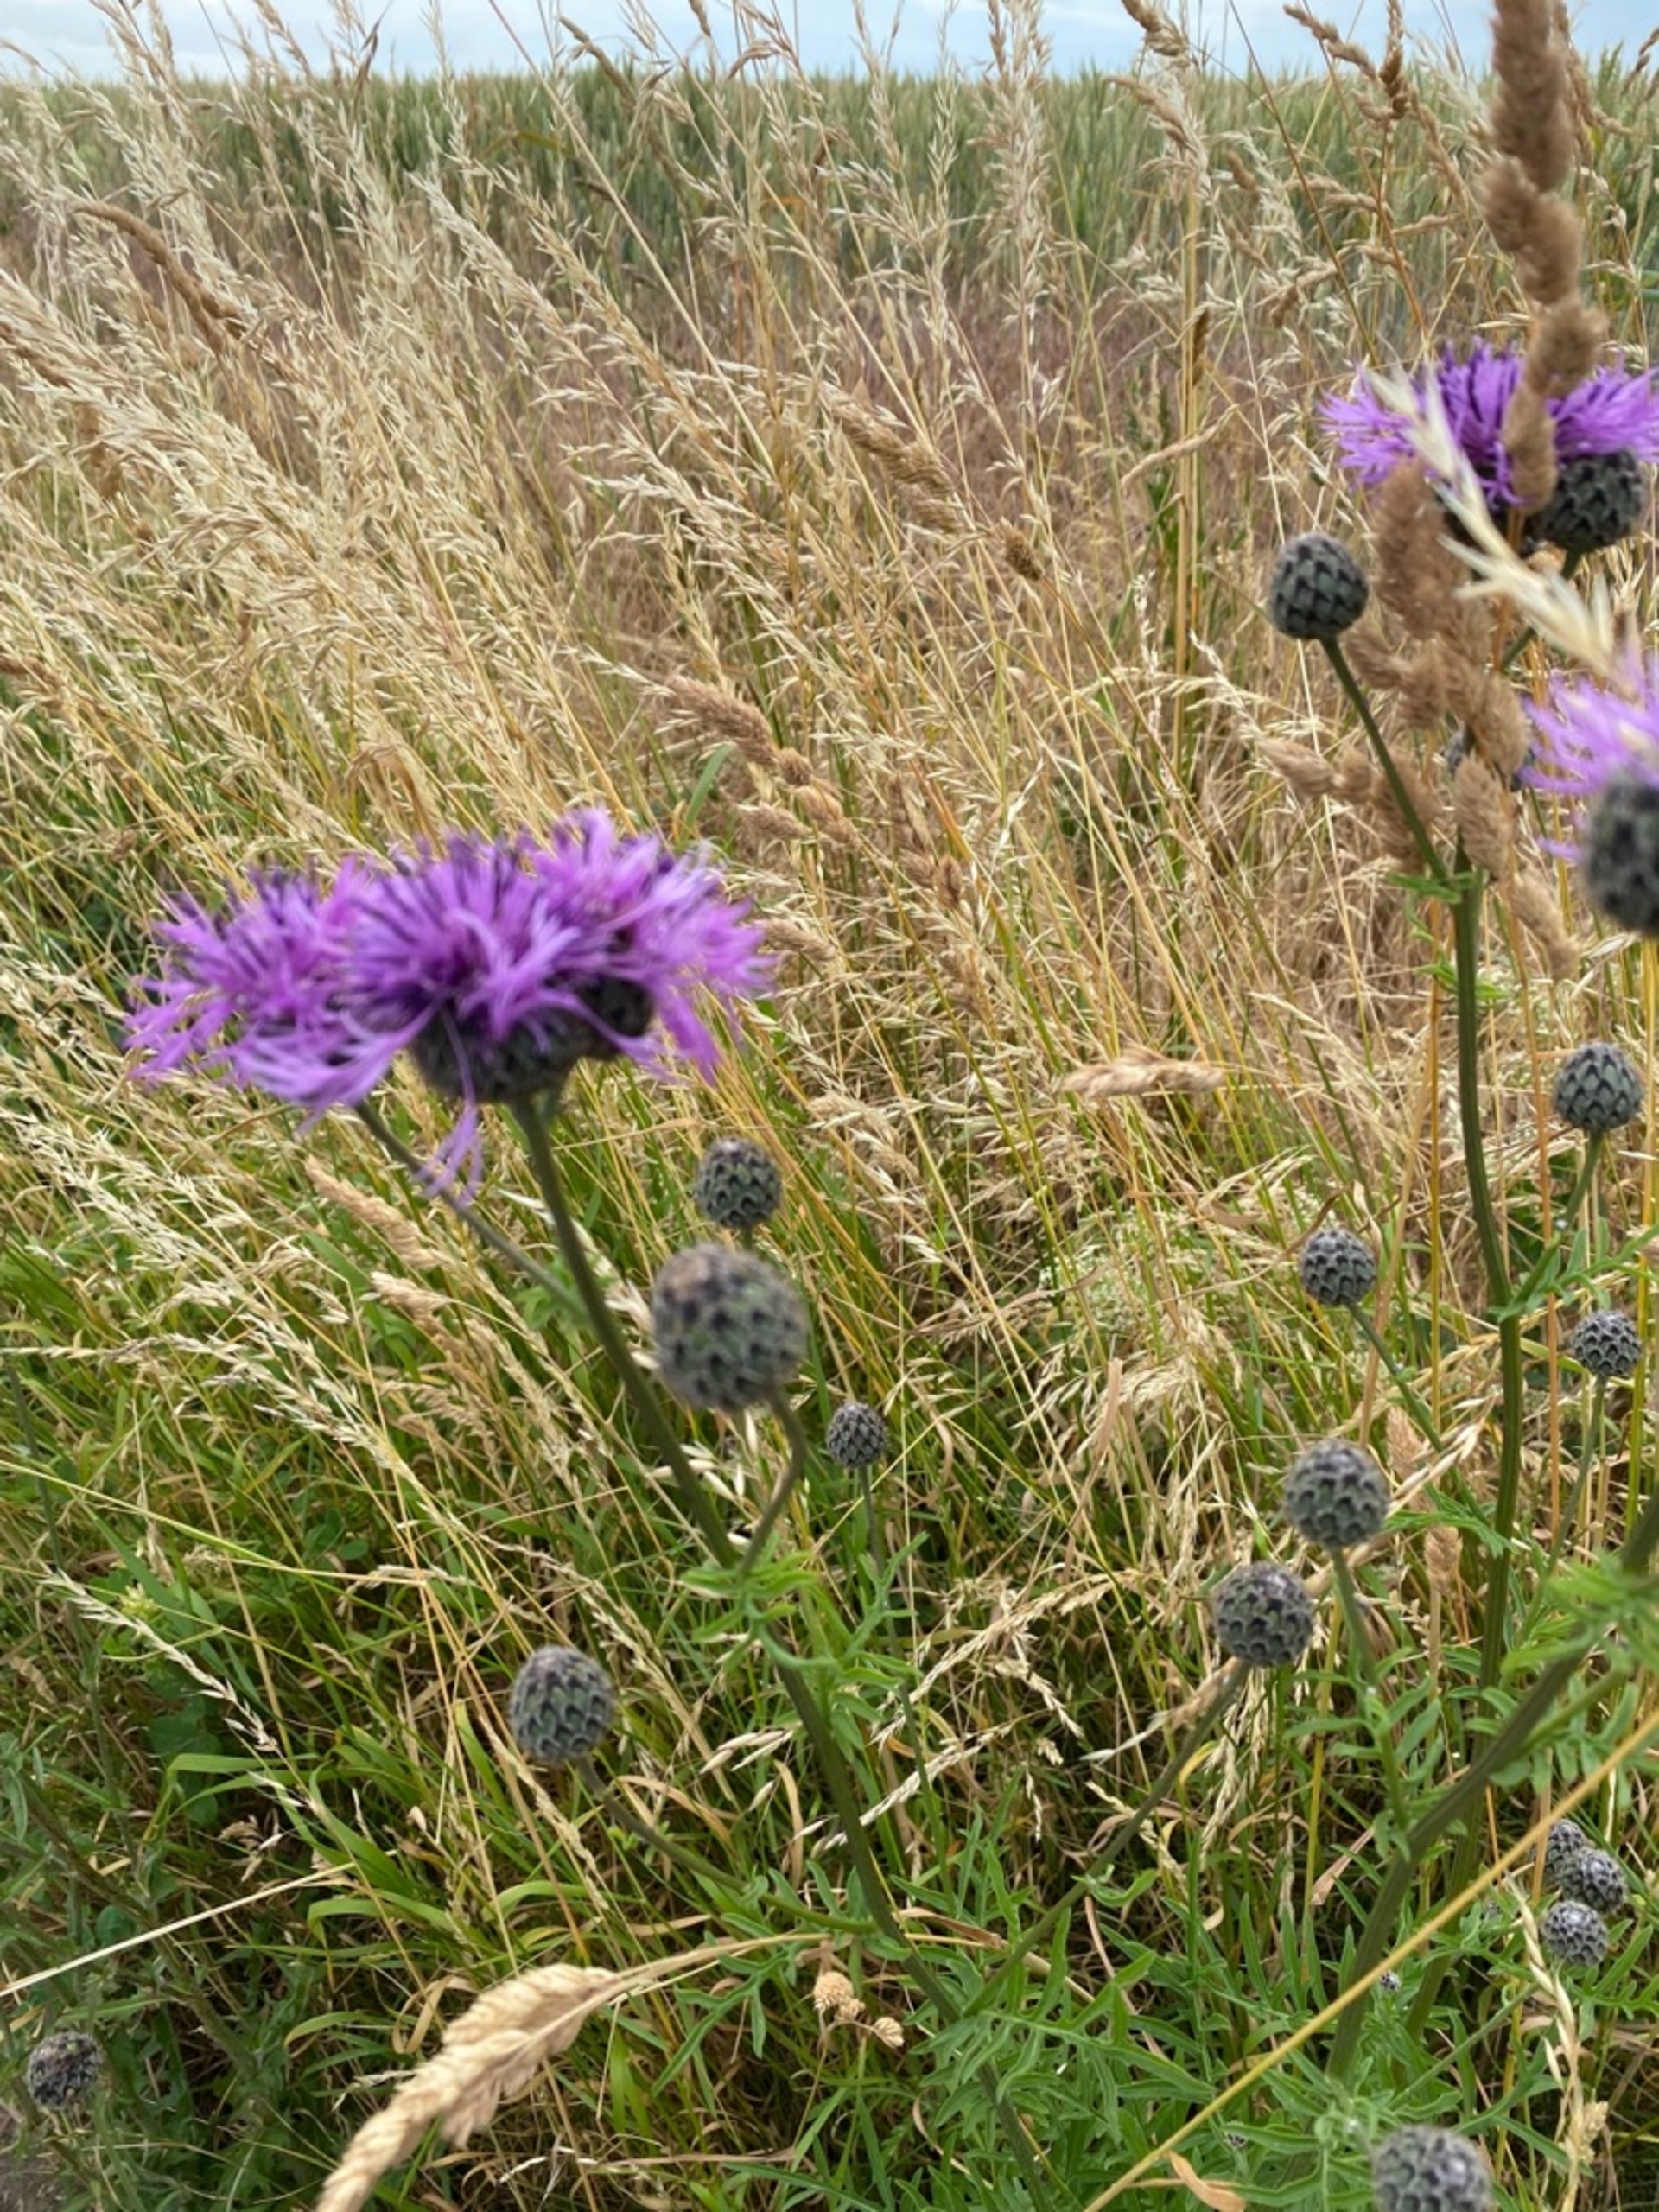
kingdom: Plantae
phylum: Tracheophyta
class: Magnoliopsida
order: Asterales
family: Asteraceae
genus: Centaurea
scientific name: Centaurea scabiosa
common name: Stor knopurt
